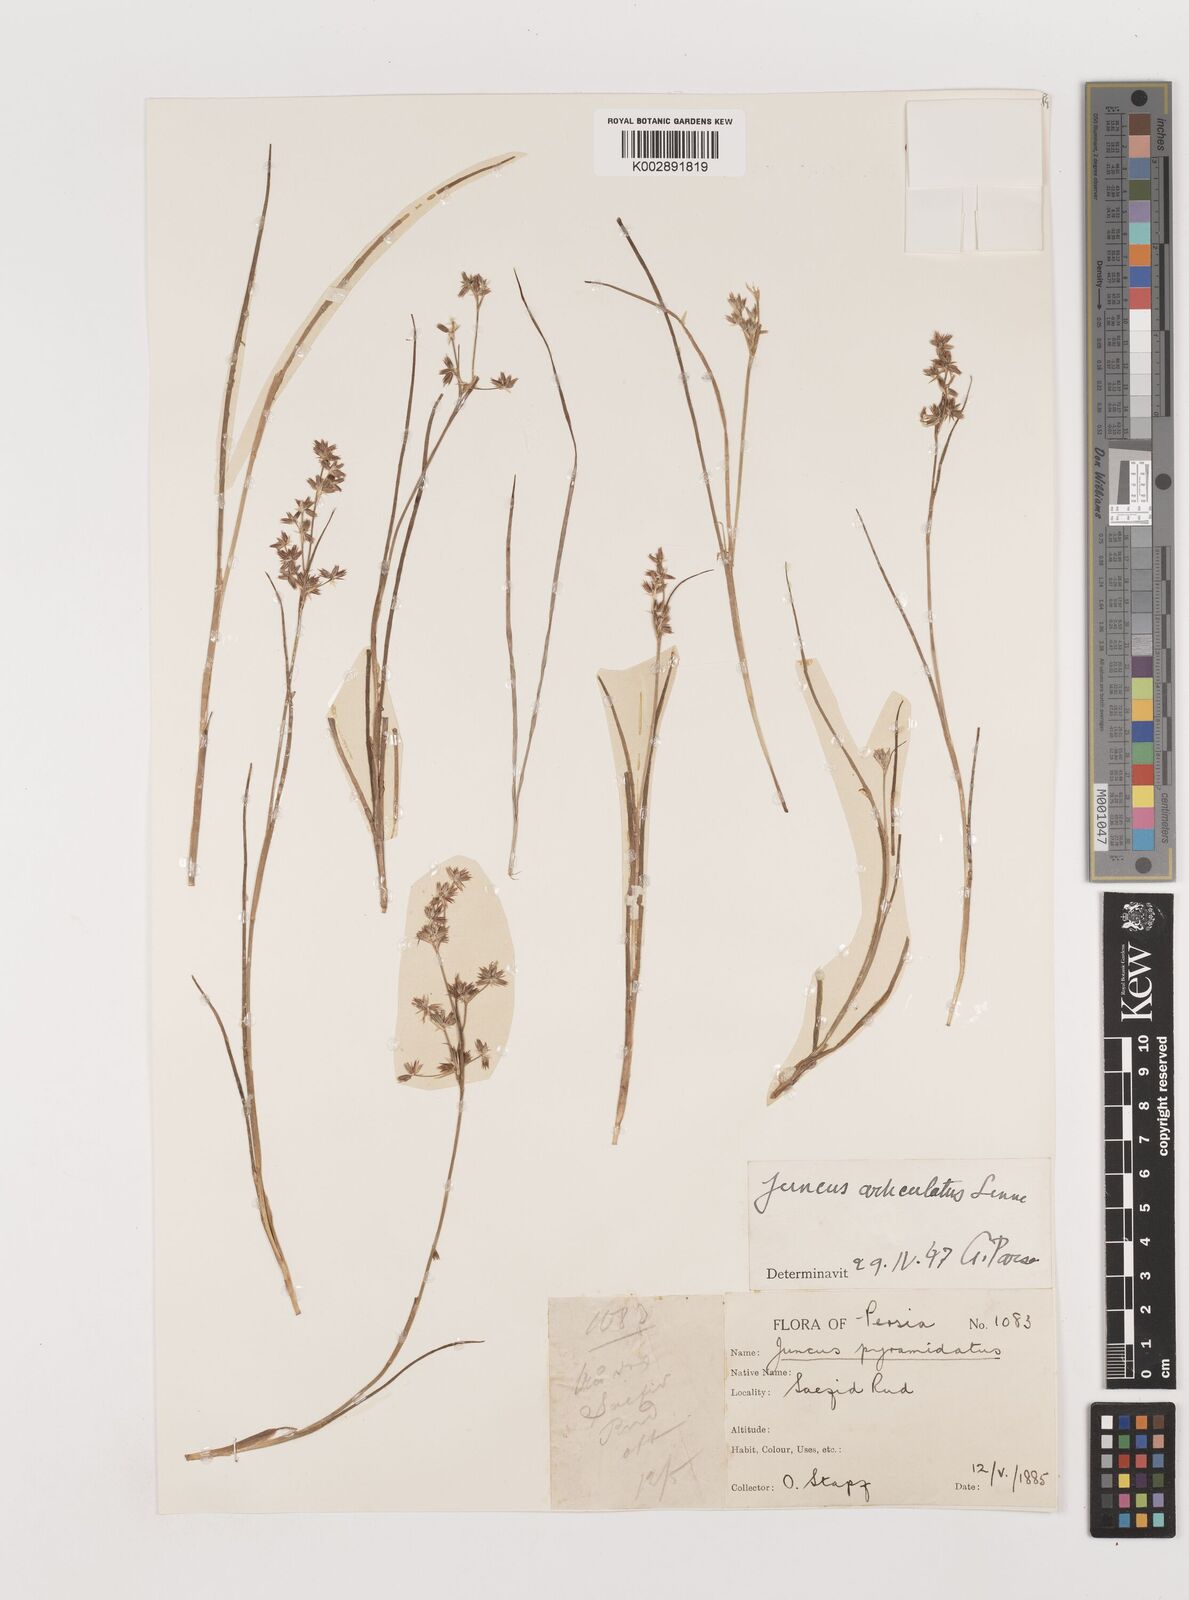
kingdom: Plantae
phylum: Tracheophyta
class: Liliopsida
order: Poales
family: Juncaceae
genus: Juncus
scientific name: Juncus articulatus
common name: Jointed rush
